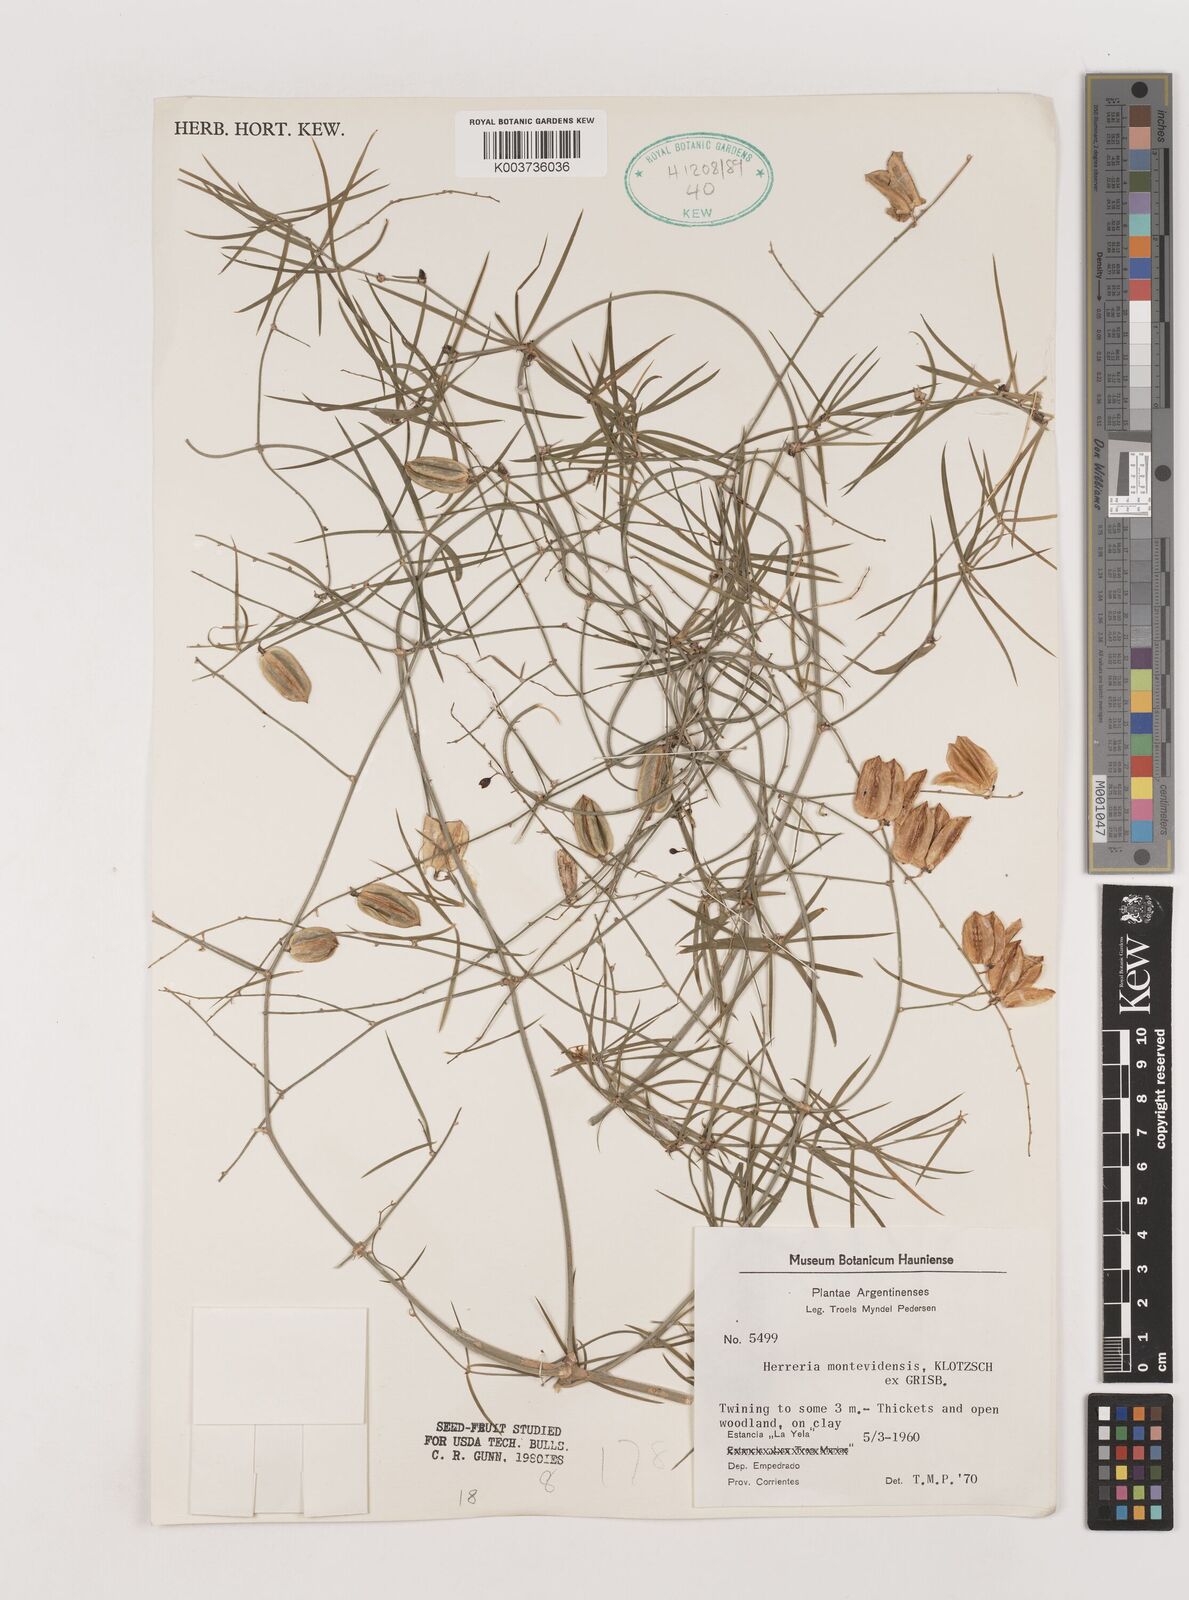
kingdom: Plantae
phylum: Tracheophyta
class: Liliopsida
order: Asparagales
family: Asparagaceae
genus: Herreria
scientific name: Herreria montevidensis
